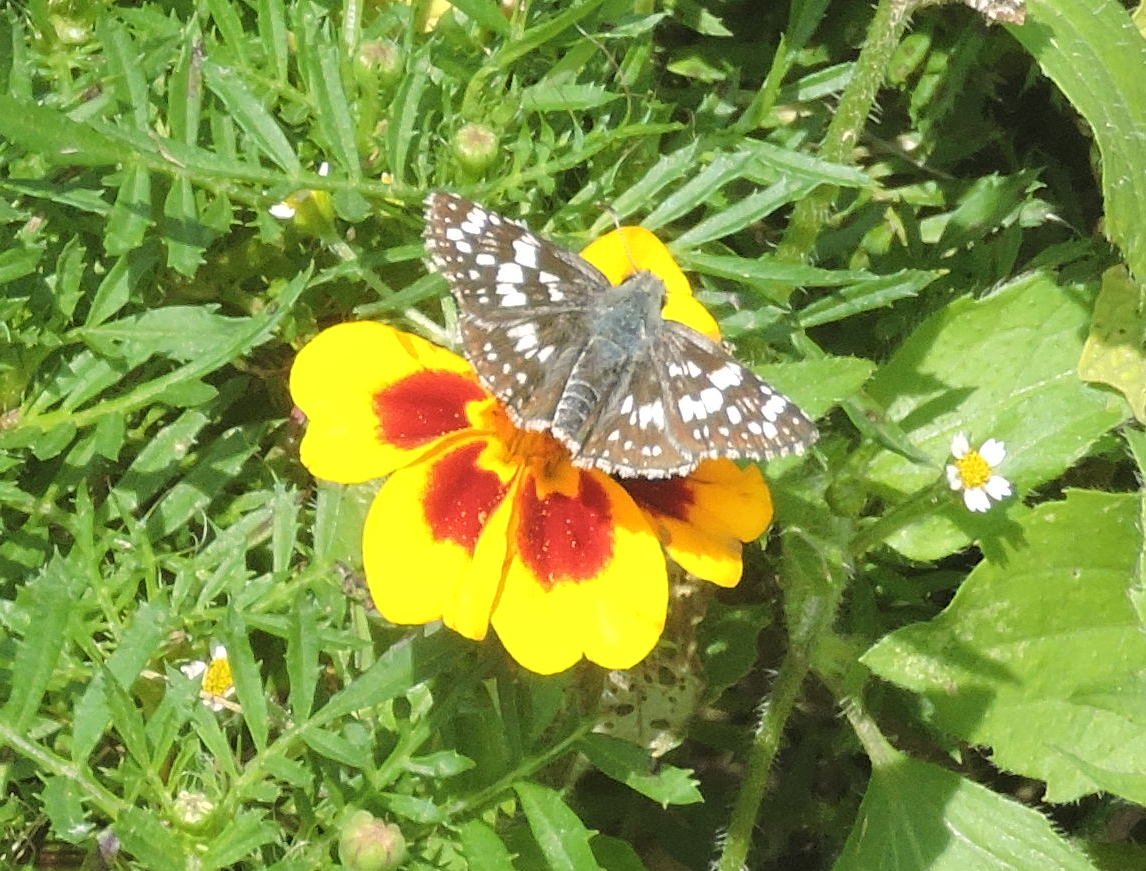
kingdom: Animalia
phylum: Arthropoda
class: Insecta
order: Lepidoptera
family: Hesperiidae
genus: Pyrgus
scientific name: Pyrgus communis
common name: Common Checkered-Skipper
